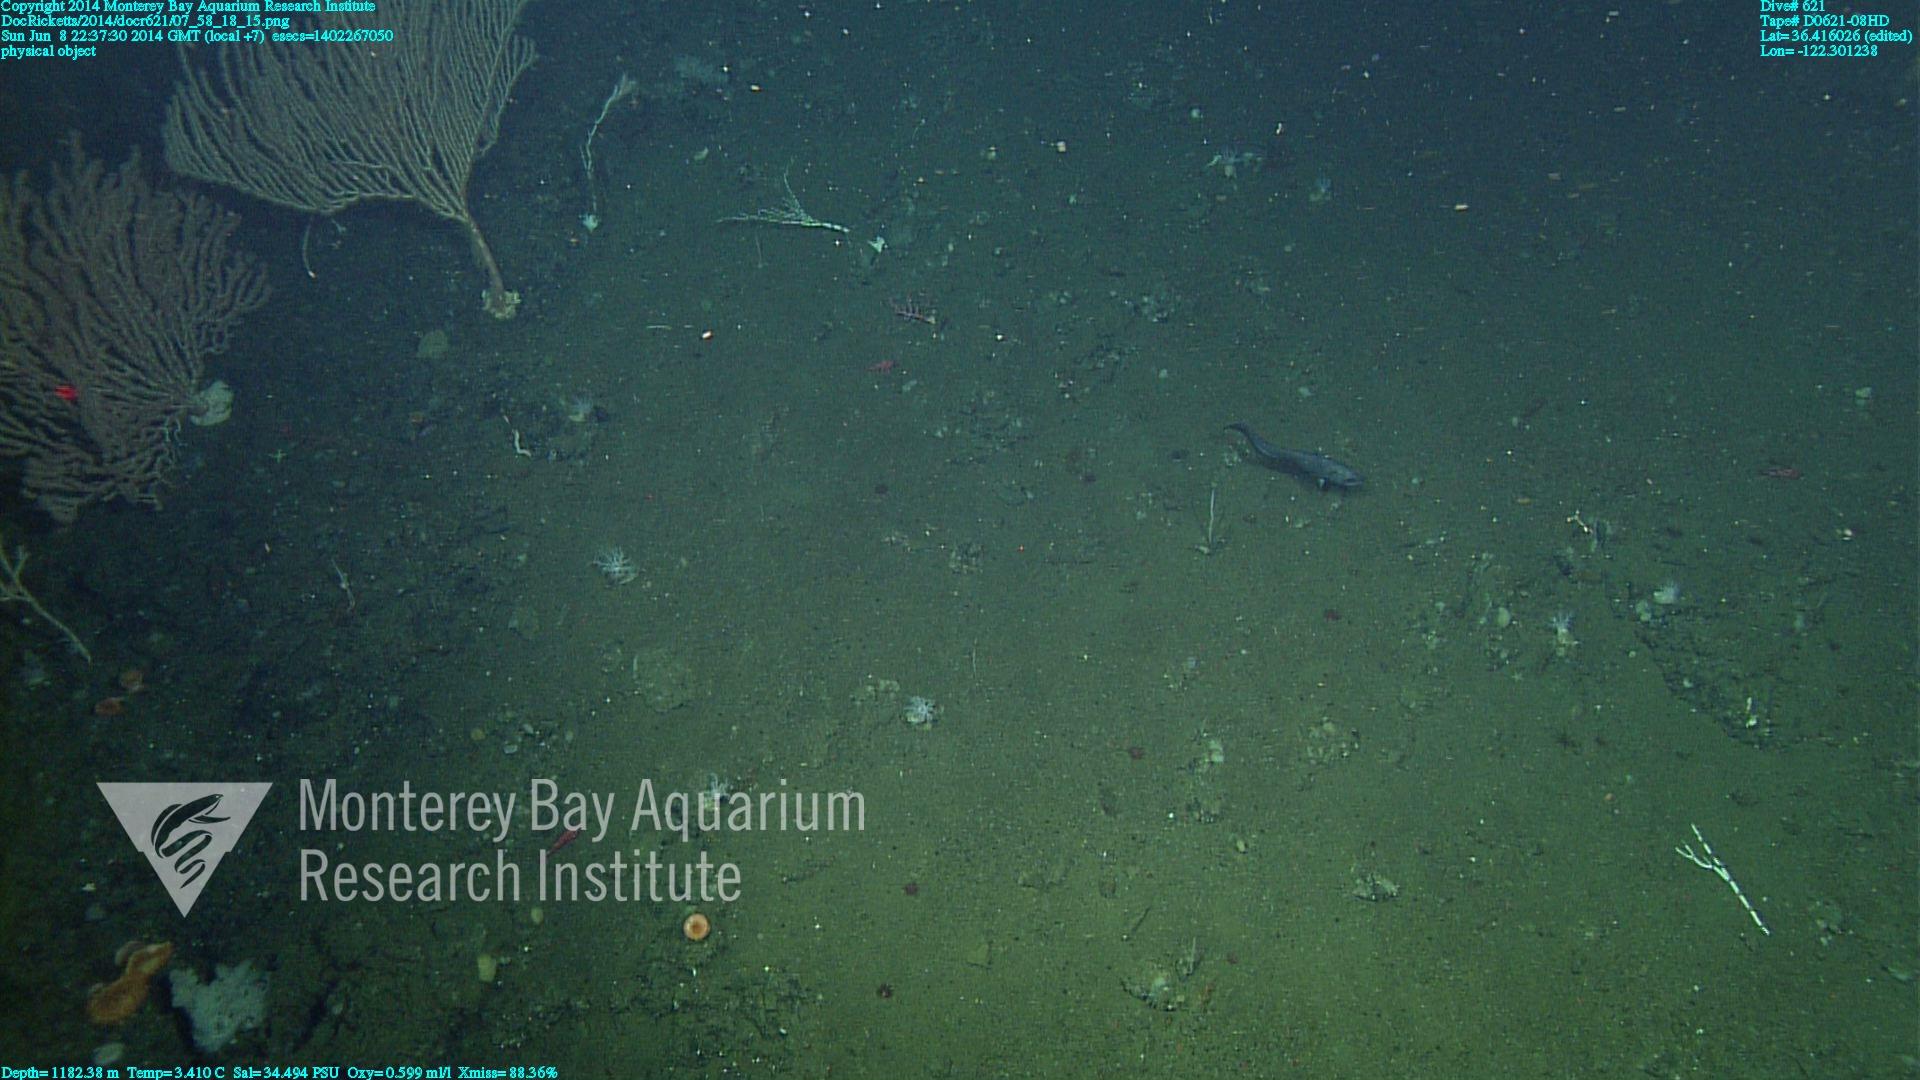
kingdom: Animalia
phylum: Cnidaria
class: Anthozoa
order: Scleralcyonacea
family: Keratoisididae
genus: Isidella
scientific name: Isidella tentaculum
